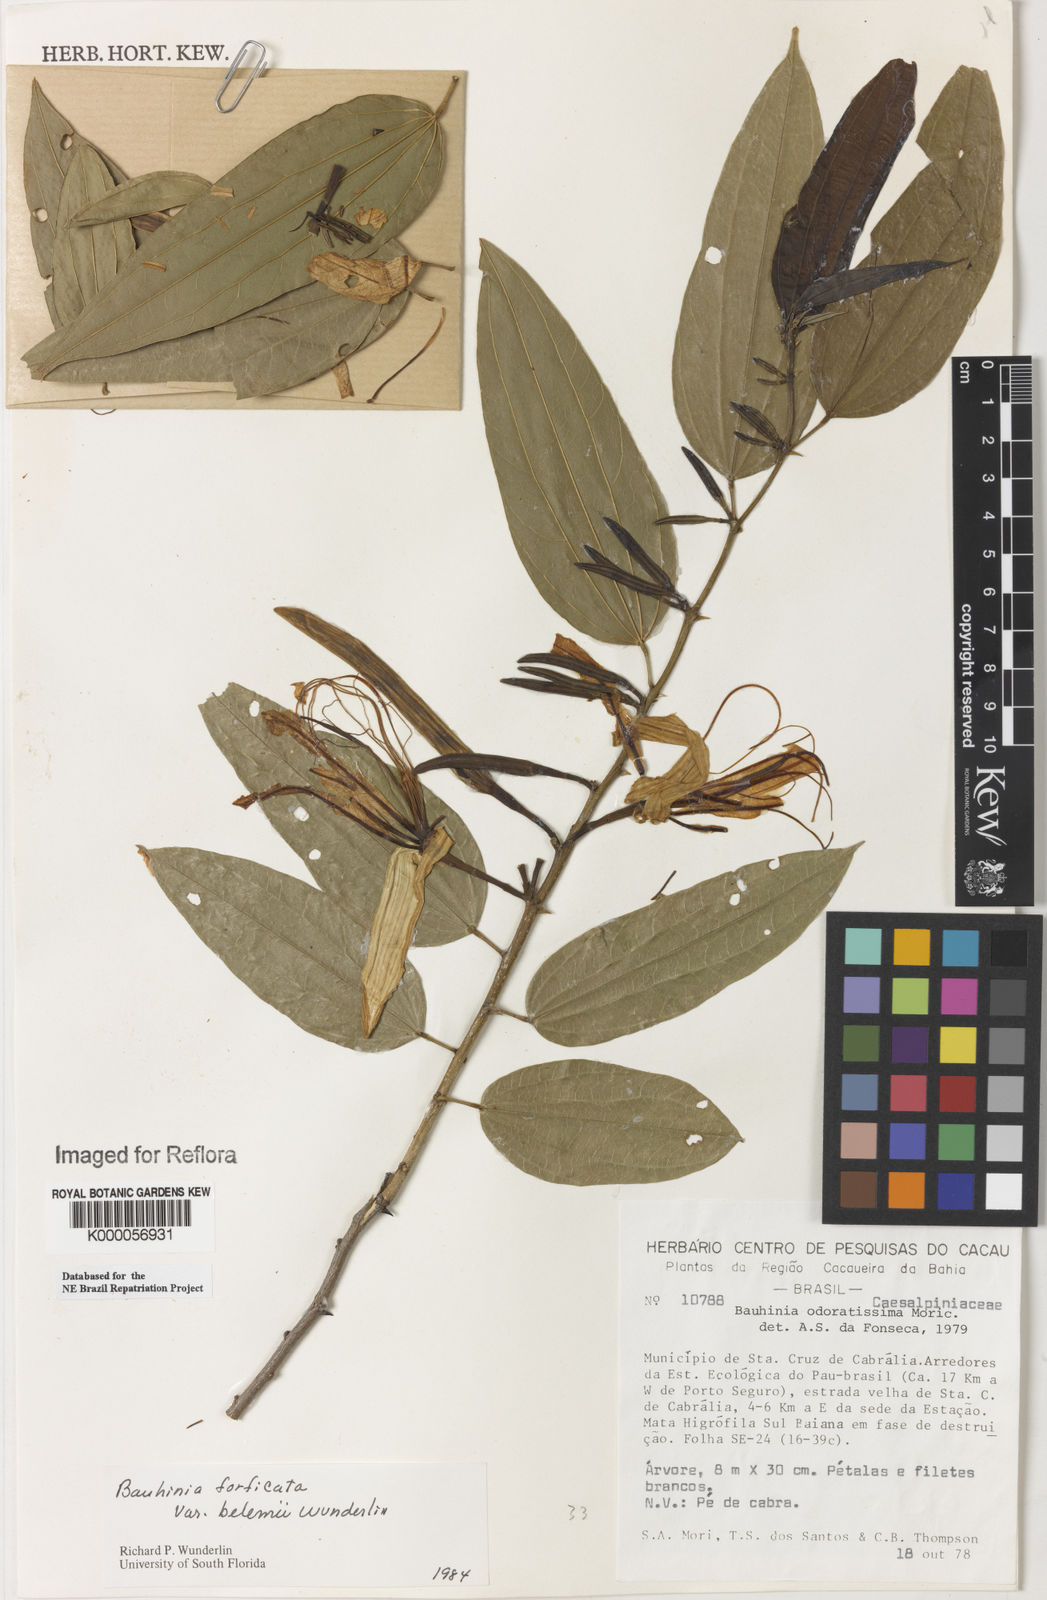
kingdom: Plantae
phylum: Tracheophyta
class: Magnoliopsida
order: Fabales
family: Fabaceae
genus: Bauhinia
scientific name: Bauhinia forficata
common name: Orchid tree
